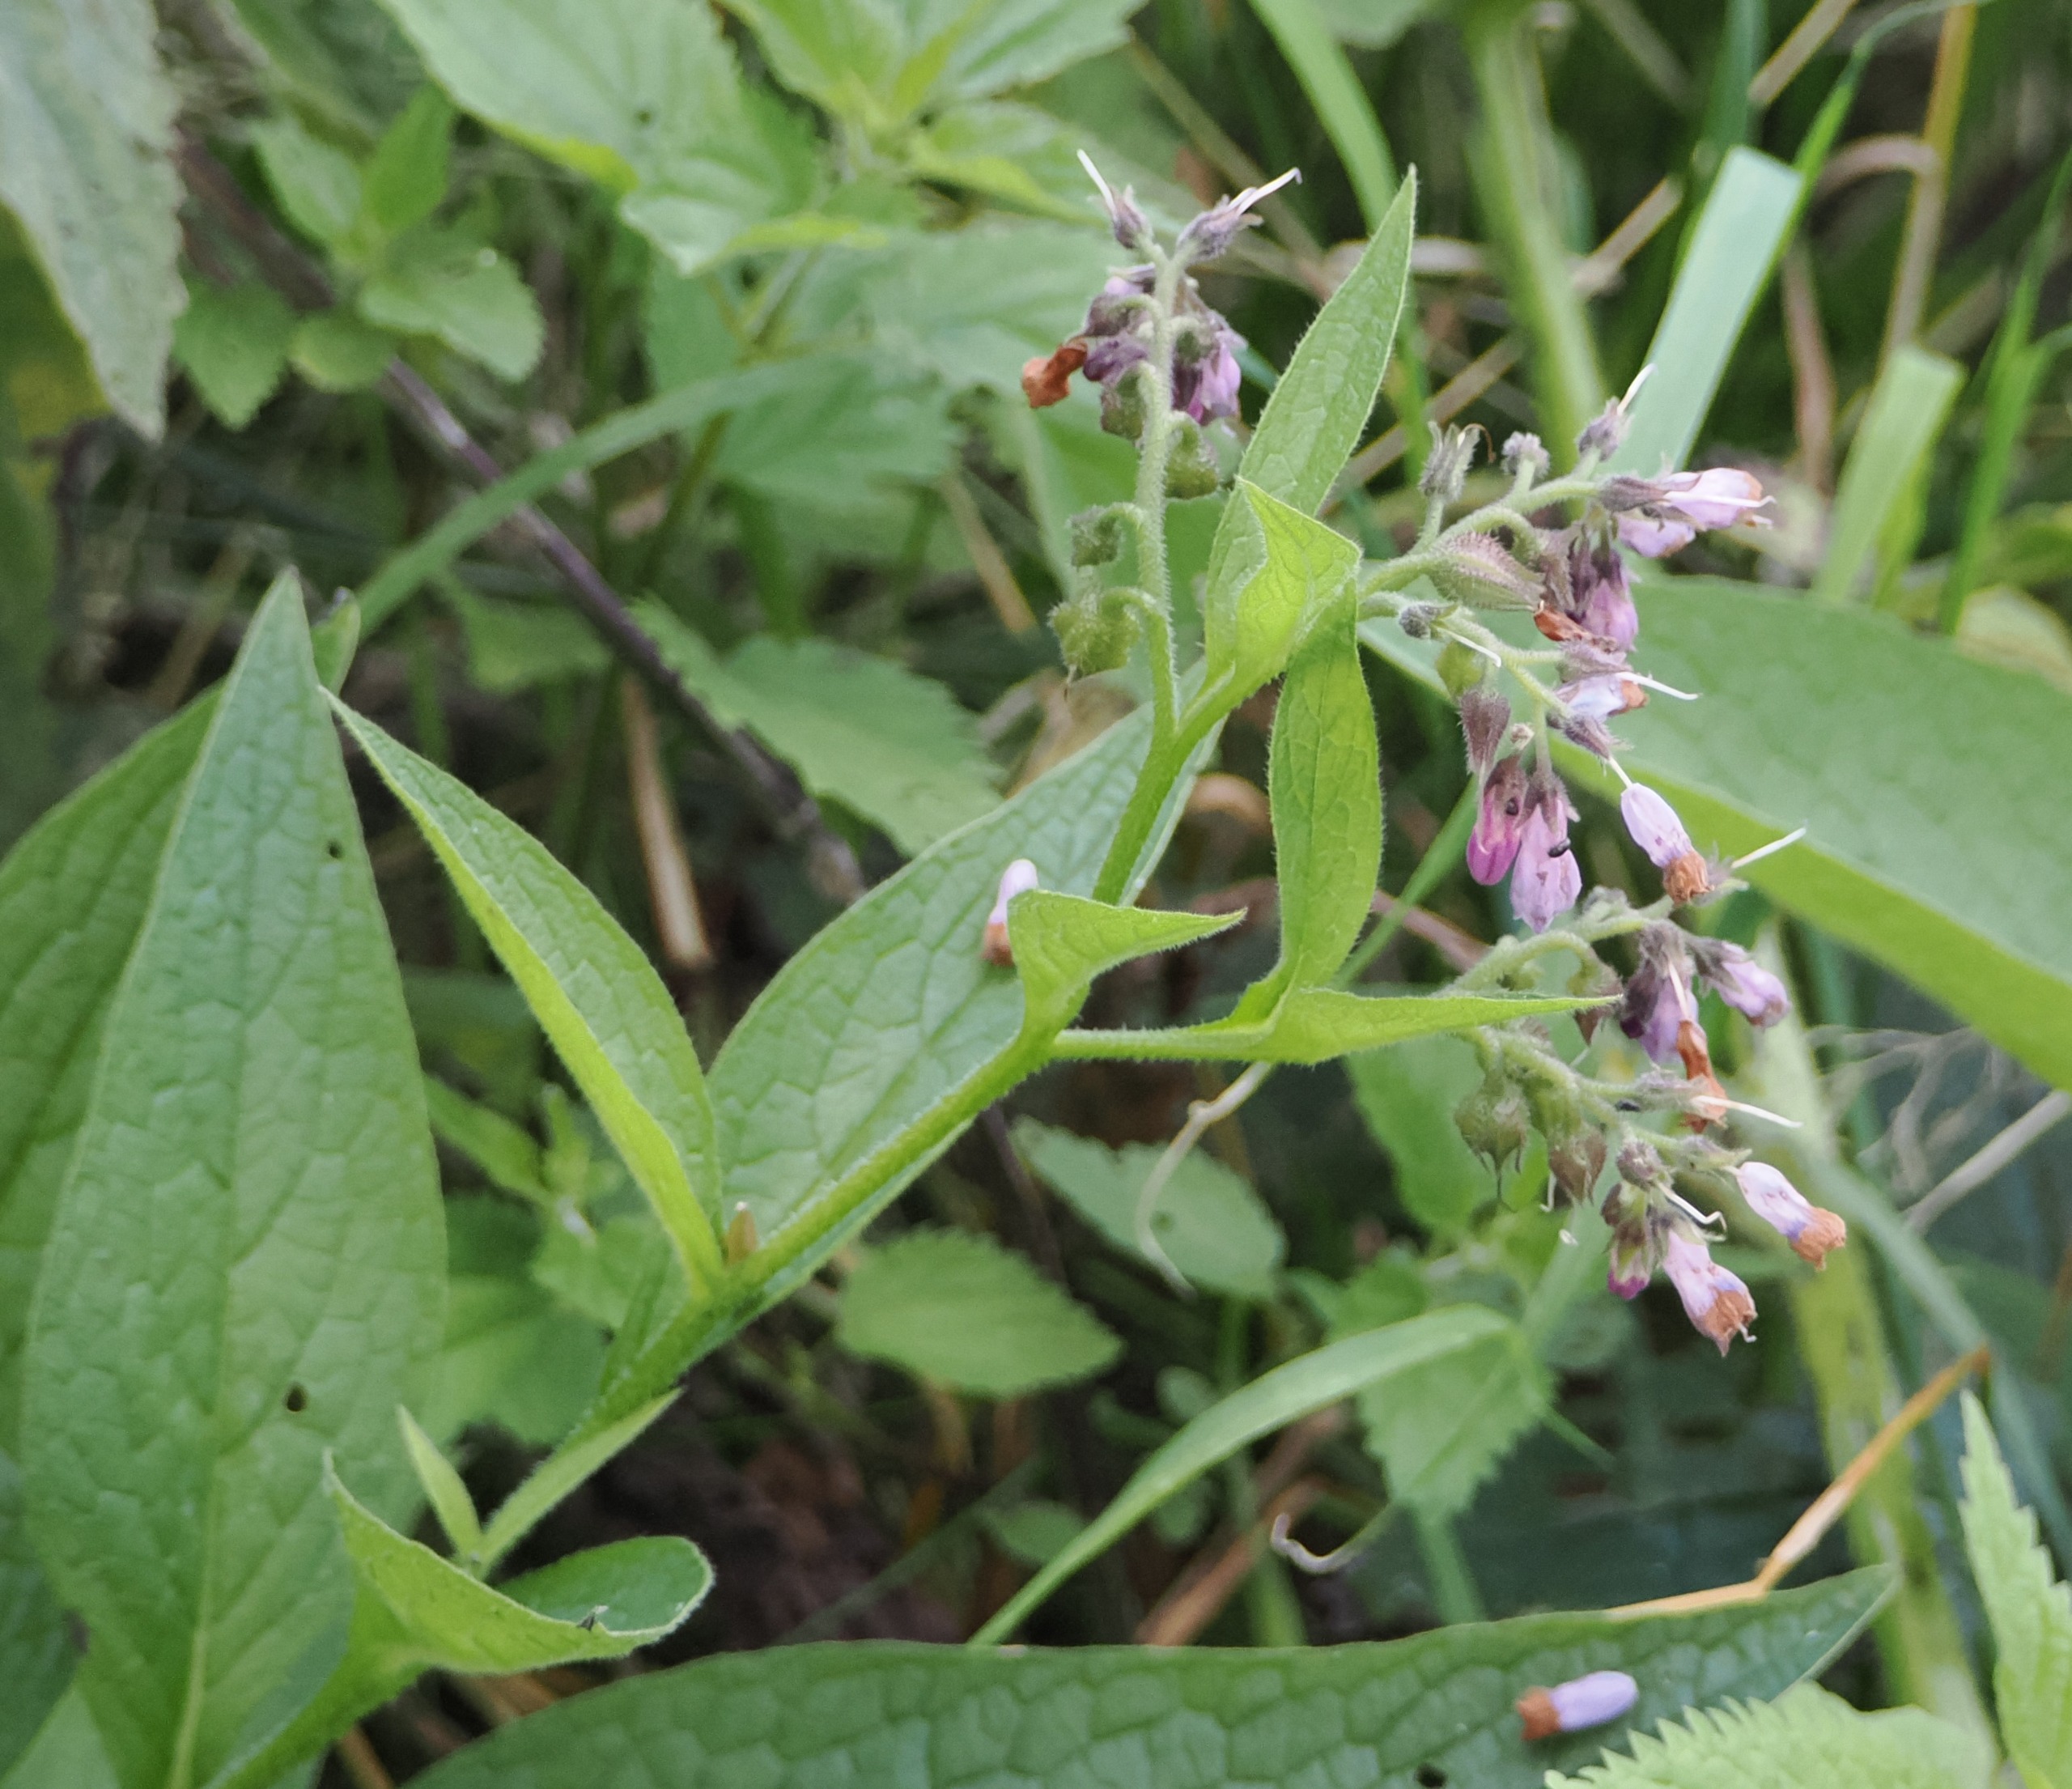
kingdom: Plantae
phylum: Tracheophyta
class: Magnoliopsida
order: Boraginales
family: Boraginaceae
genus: Symphytum
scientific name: Symphytum uplandicum
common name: Foder-kulsukker
